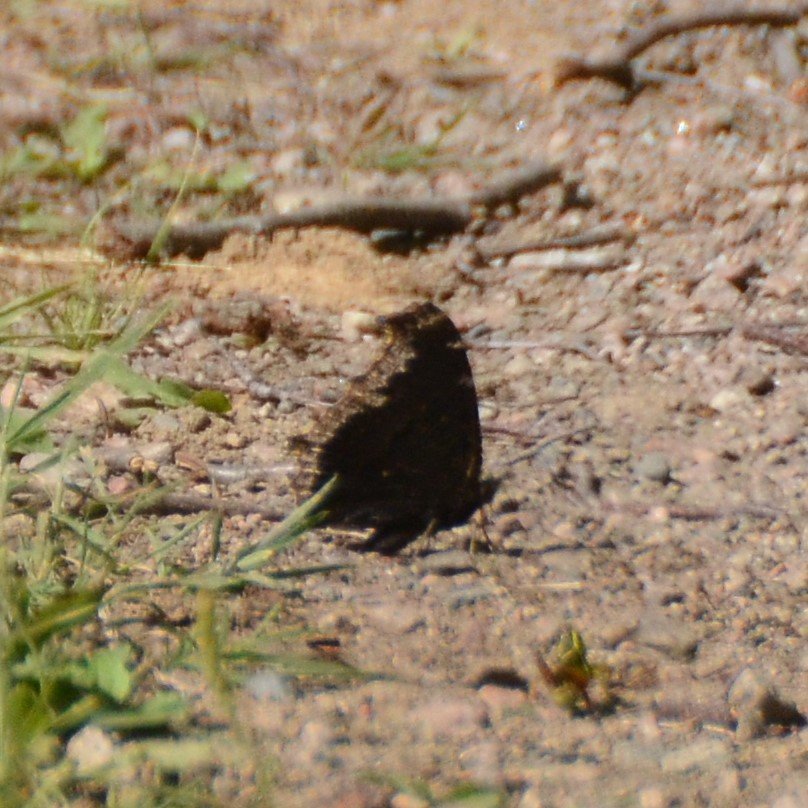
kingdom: Animalia
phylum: Arthropoda
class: Insecta
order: Lepidoptera
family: Nymphalidae
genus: Nymphalis
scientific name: Nymphalis antiopa
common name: Mourning Cloak
